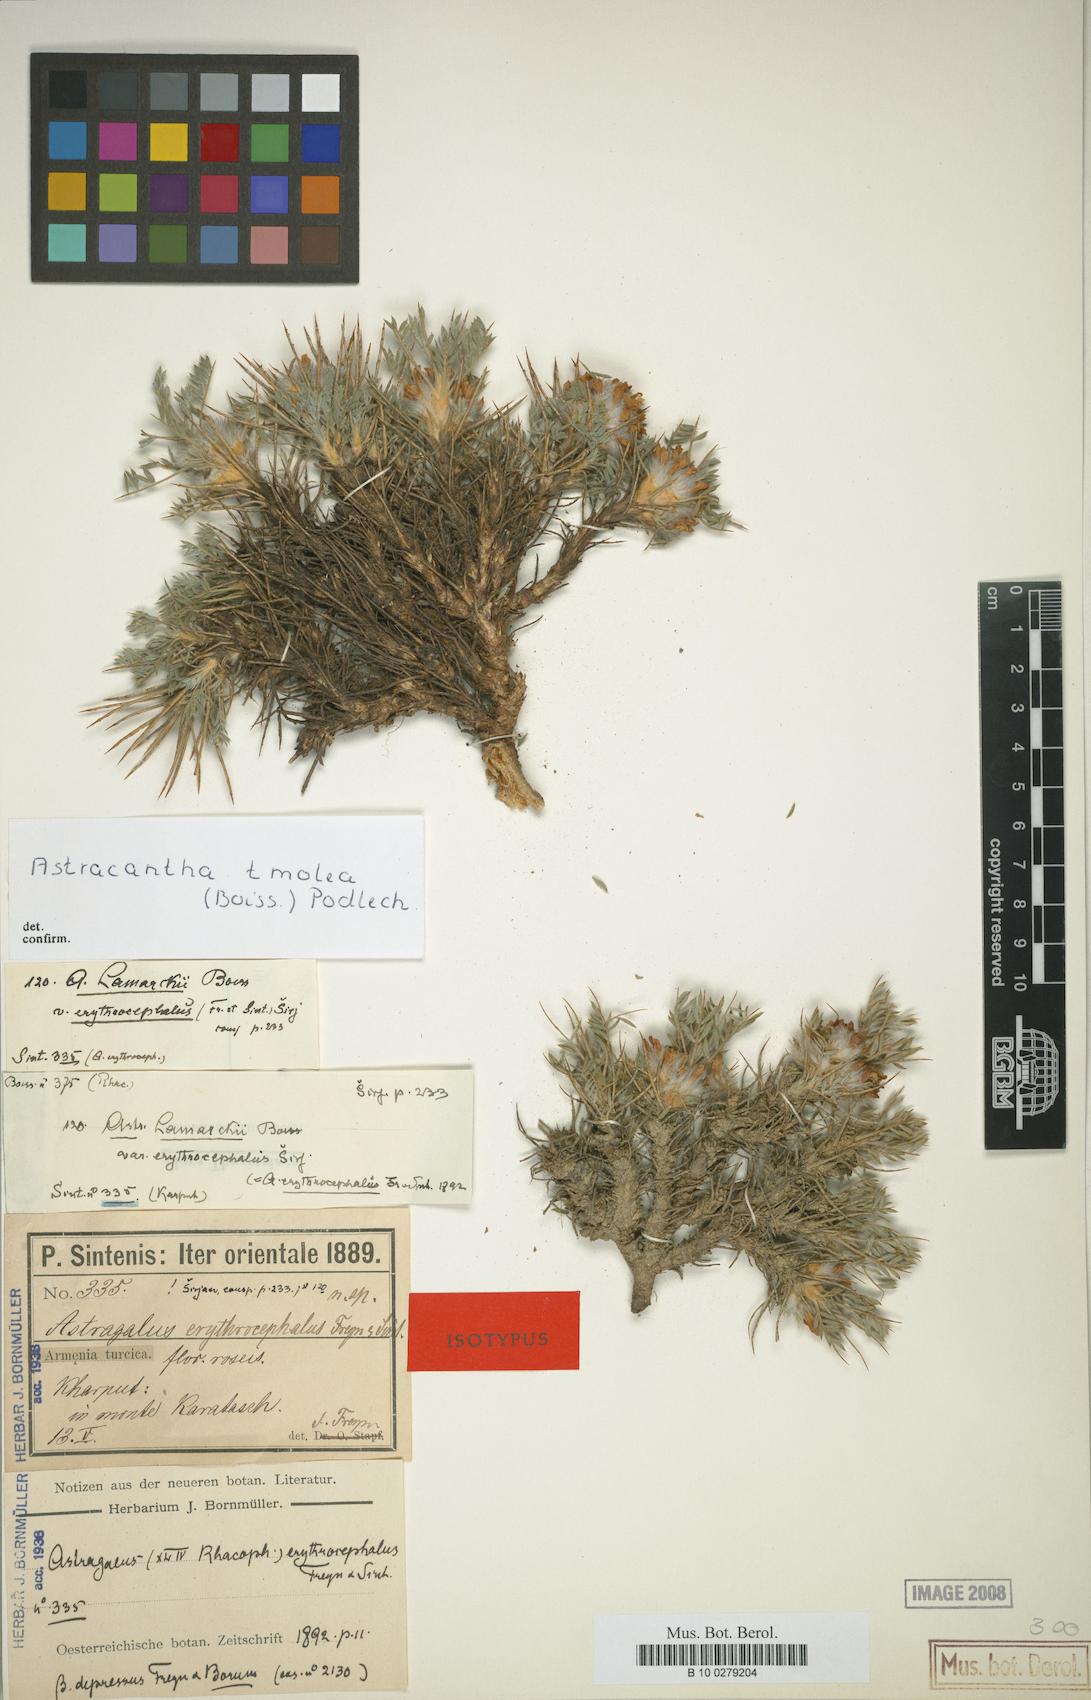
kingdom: Plantae
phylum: Tracheophyta
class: Magnoliopsida
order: Fabales
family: Fabaceae
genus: Astragalus
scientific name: Astragalus tmoleus
